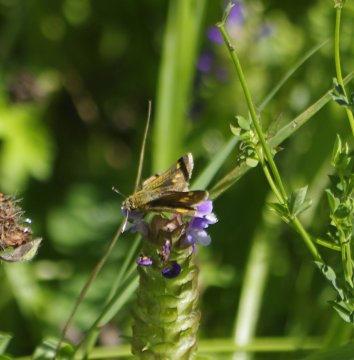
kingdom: Animalia
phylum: Arthropoda
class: Insecta
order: Lepidoptera
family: Hesperiidae
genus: Lon
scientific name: Lon hobomok
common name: Hobomok Skipper
